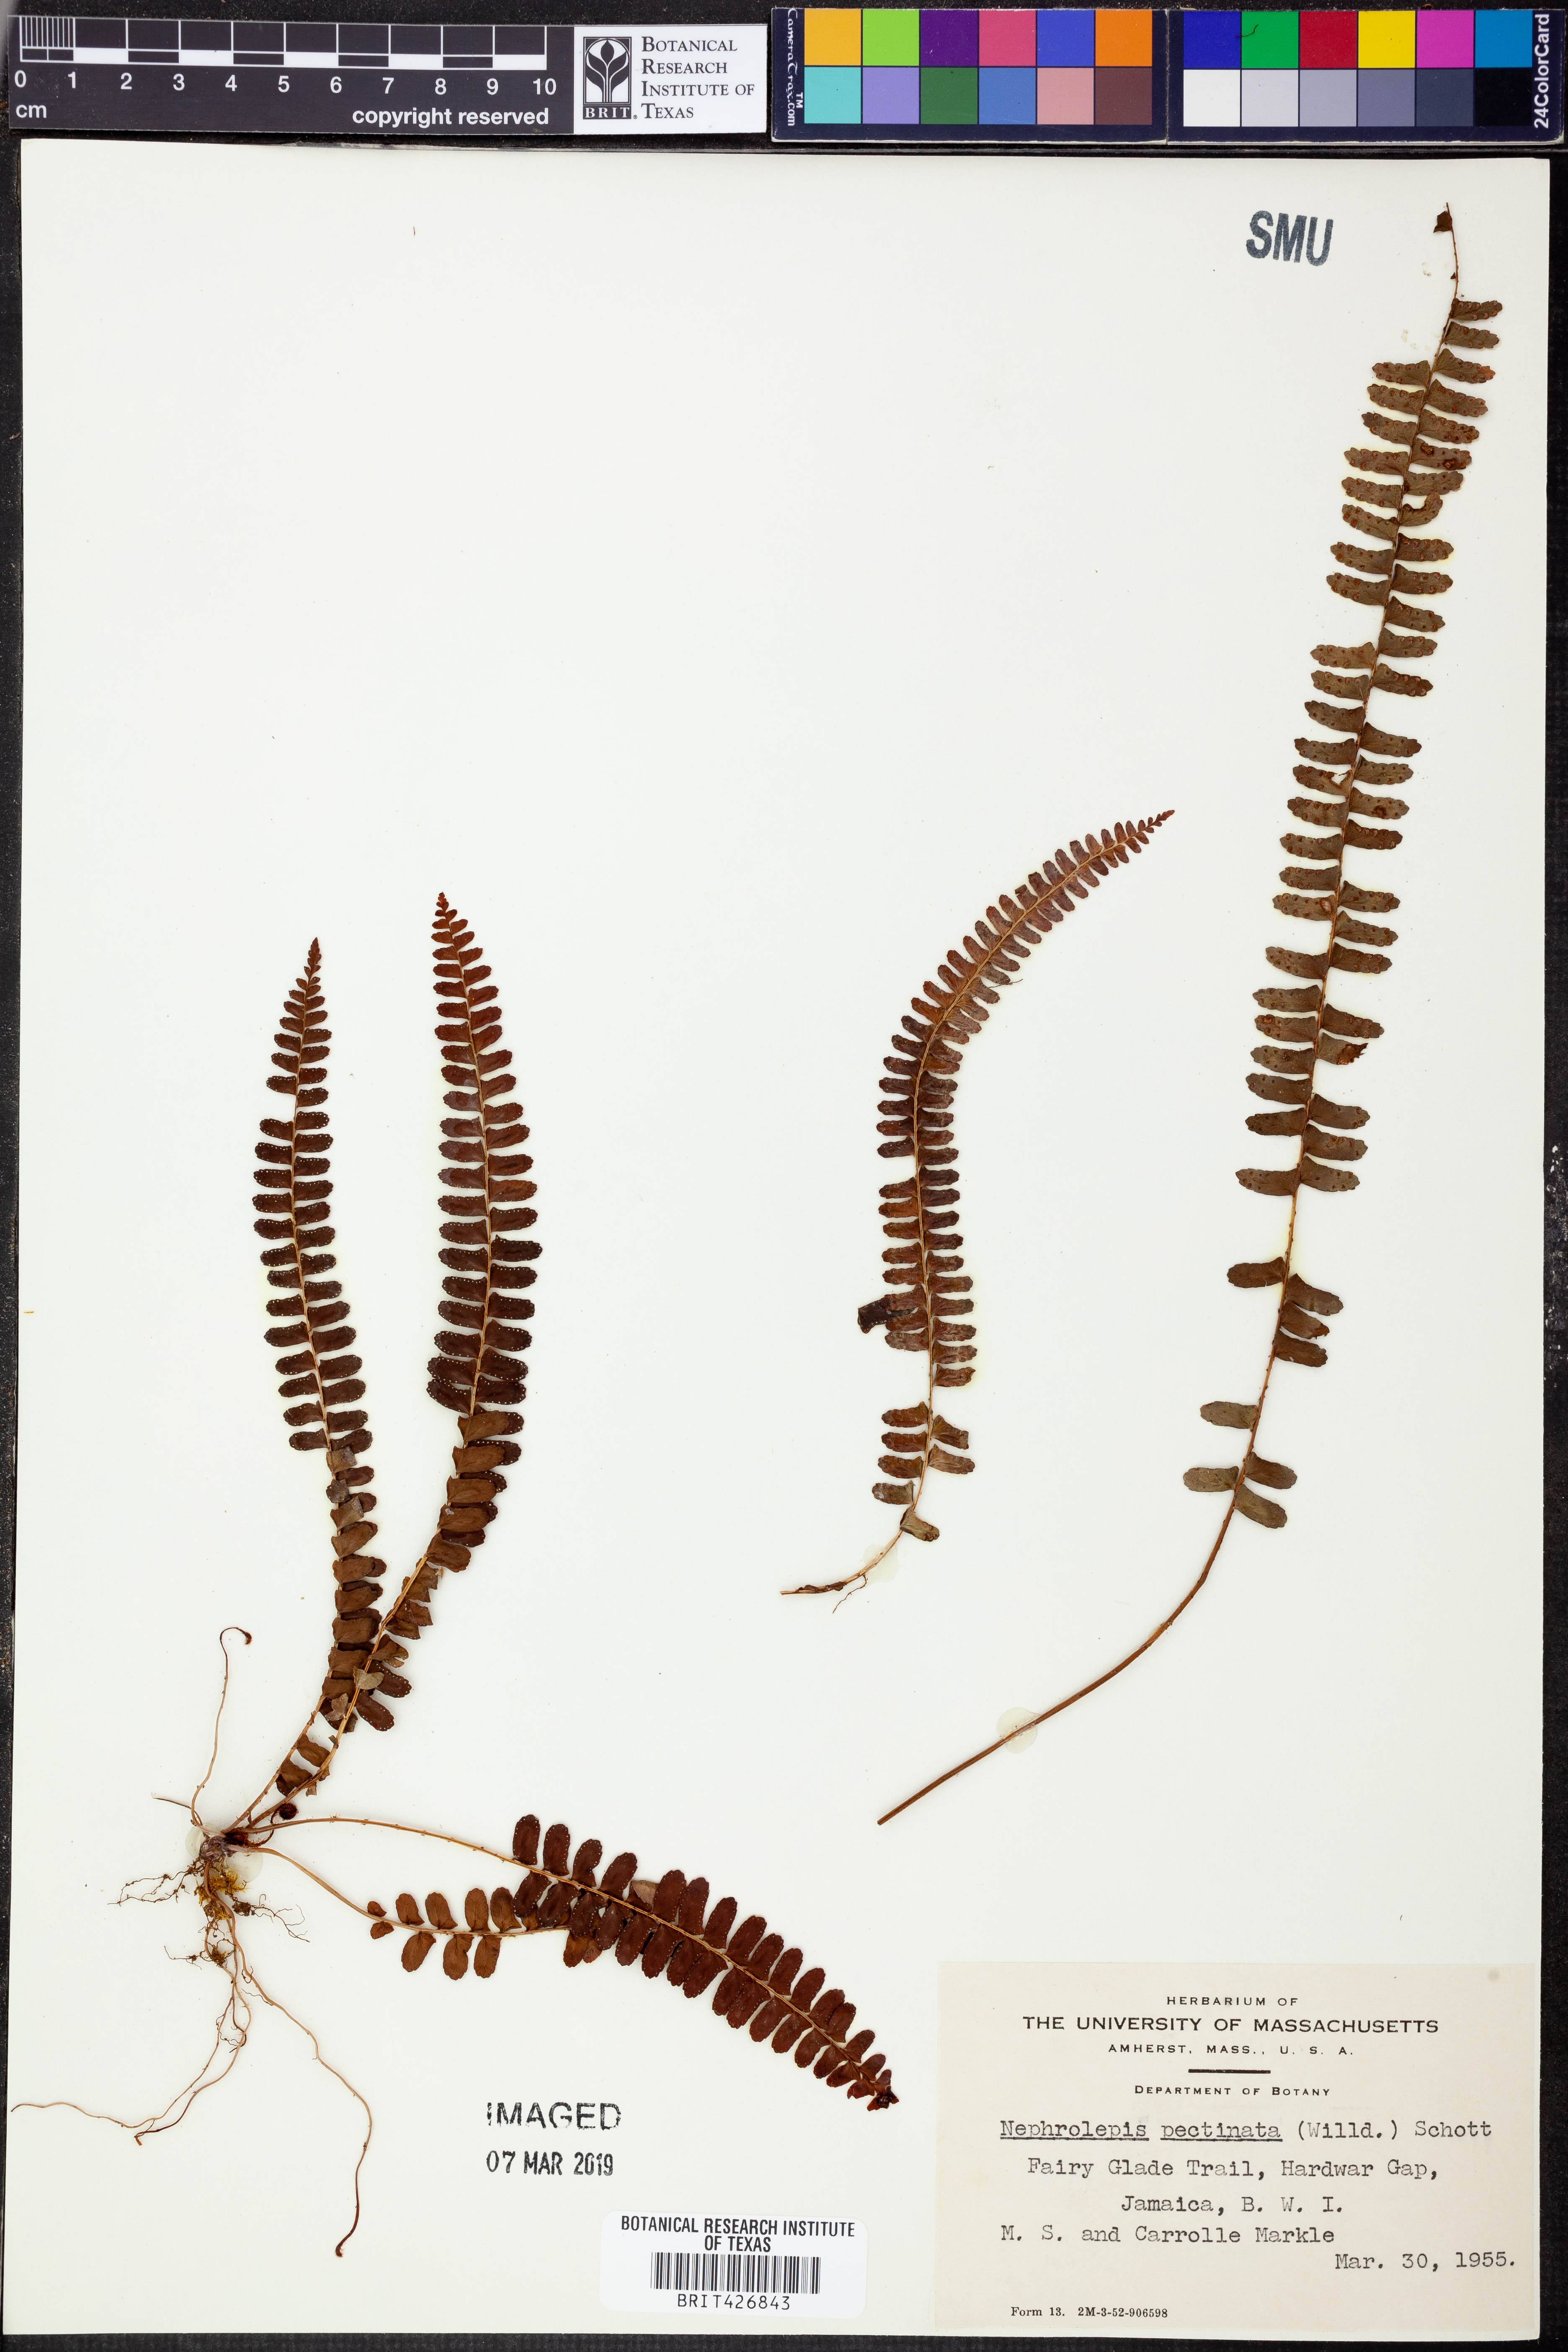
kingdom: Plantae
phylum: Tracheophyta
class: Polypodiopsida
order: Polypodiales
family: Nephrolepidaceae
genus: Nephrolepis
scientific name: Nephrolepis pectinata
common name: Basket fern
